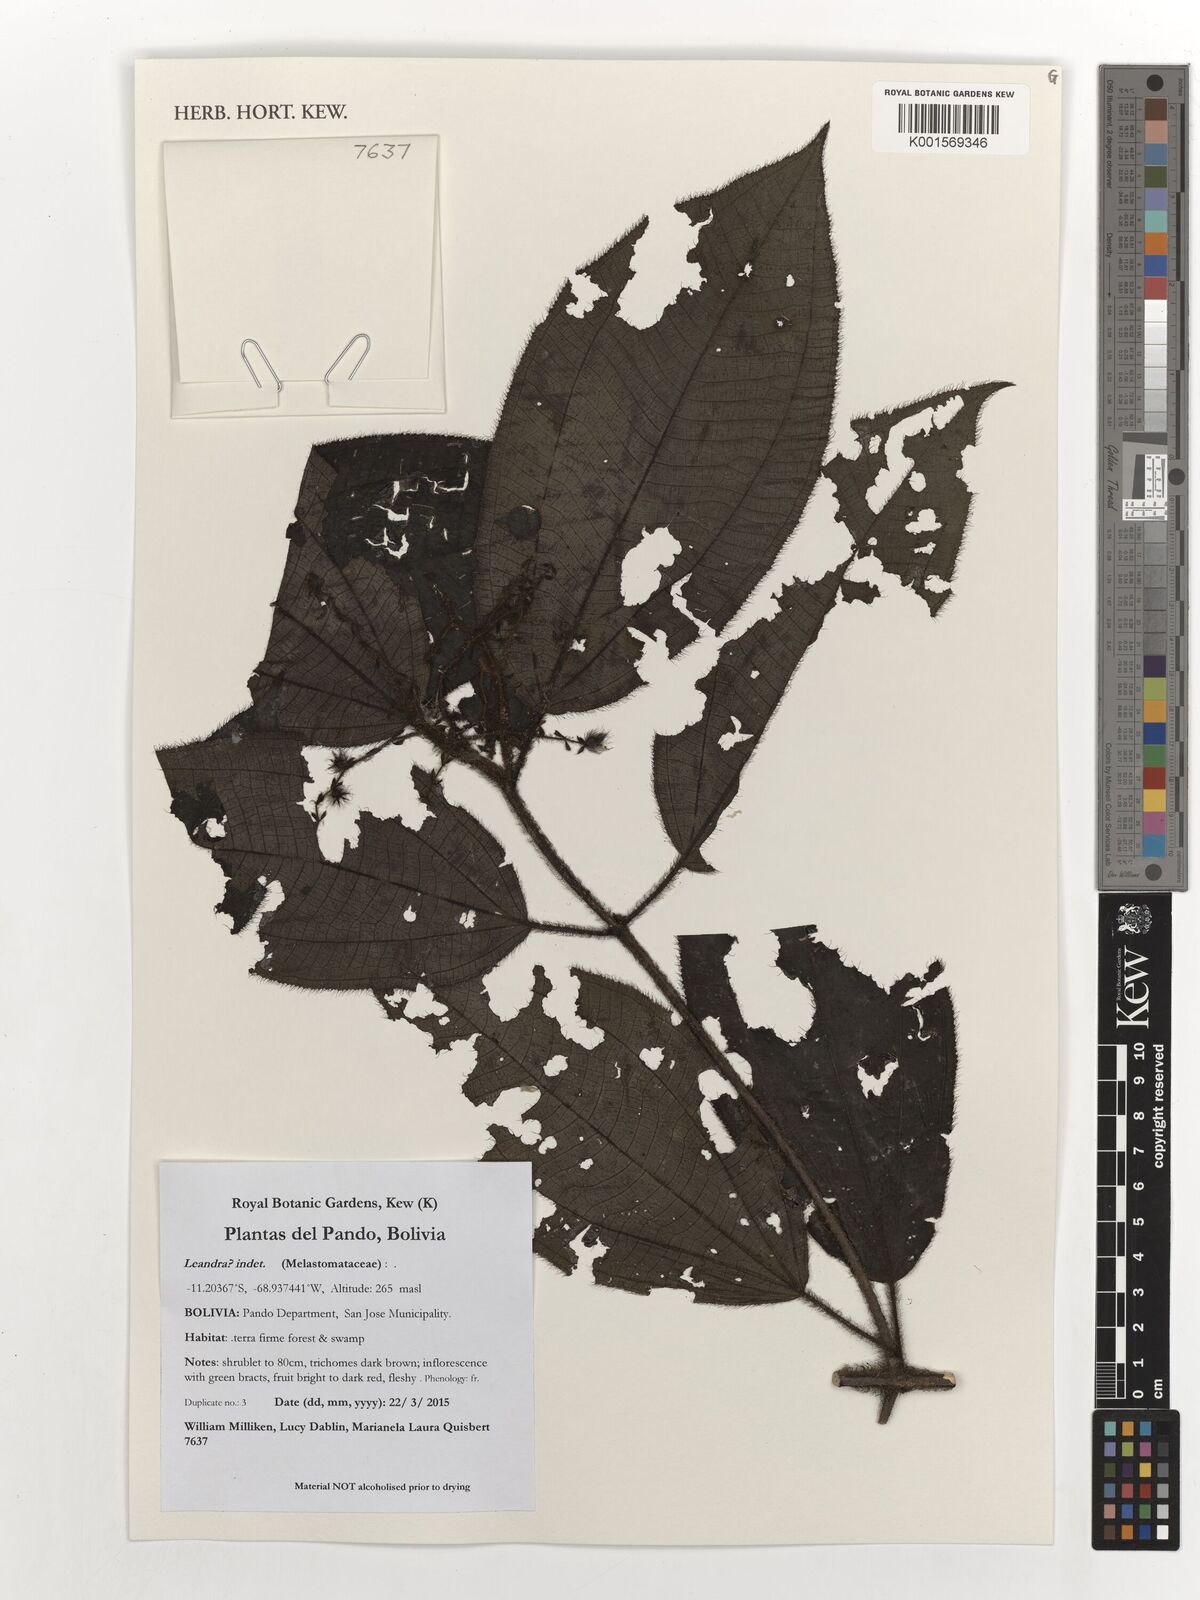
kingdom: Plantae
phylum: Tracheophyta
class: Magnoliopsida
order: Myrtales
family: Melastomataceae
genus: Miconia
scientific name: Miconia
